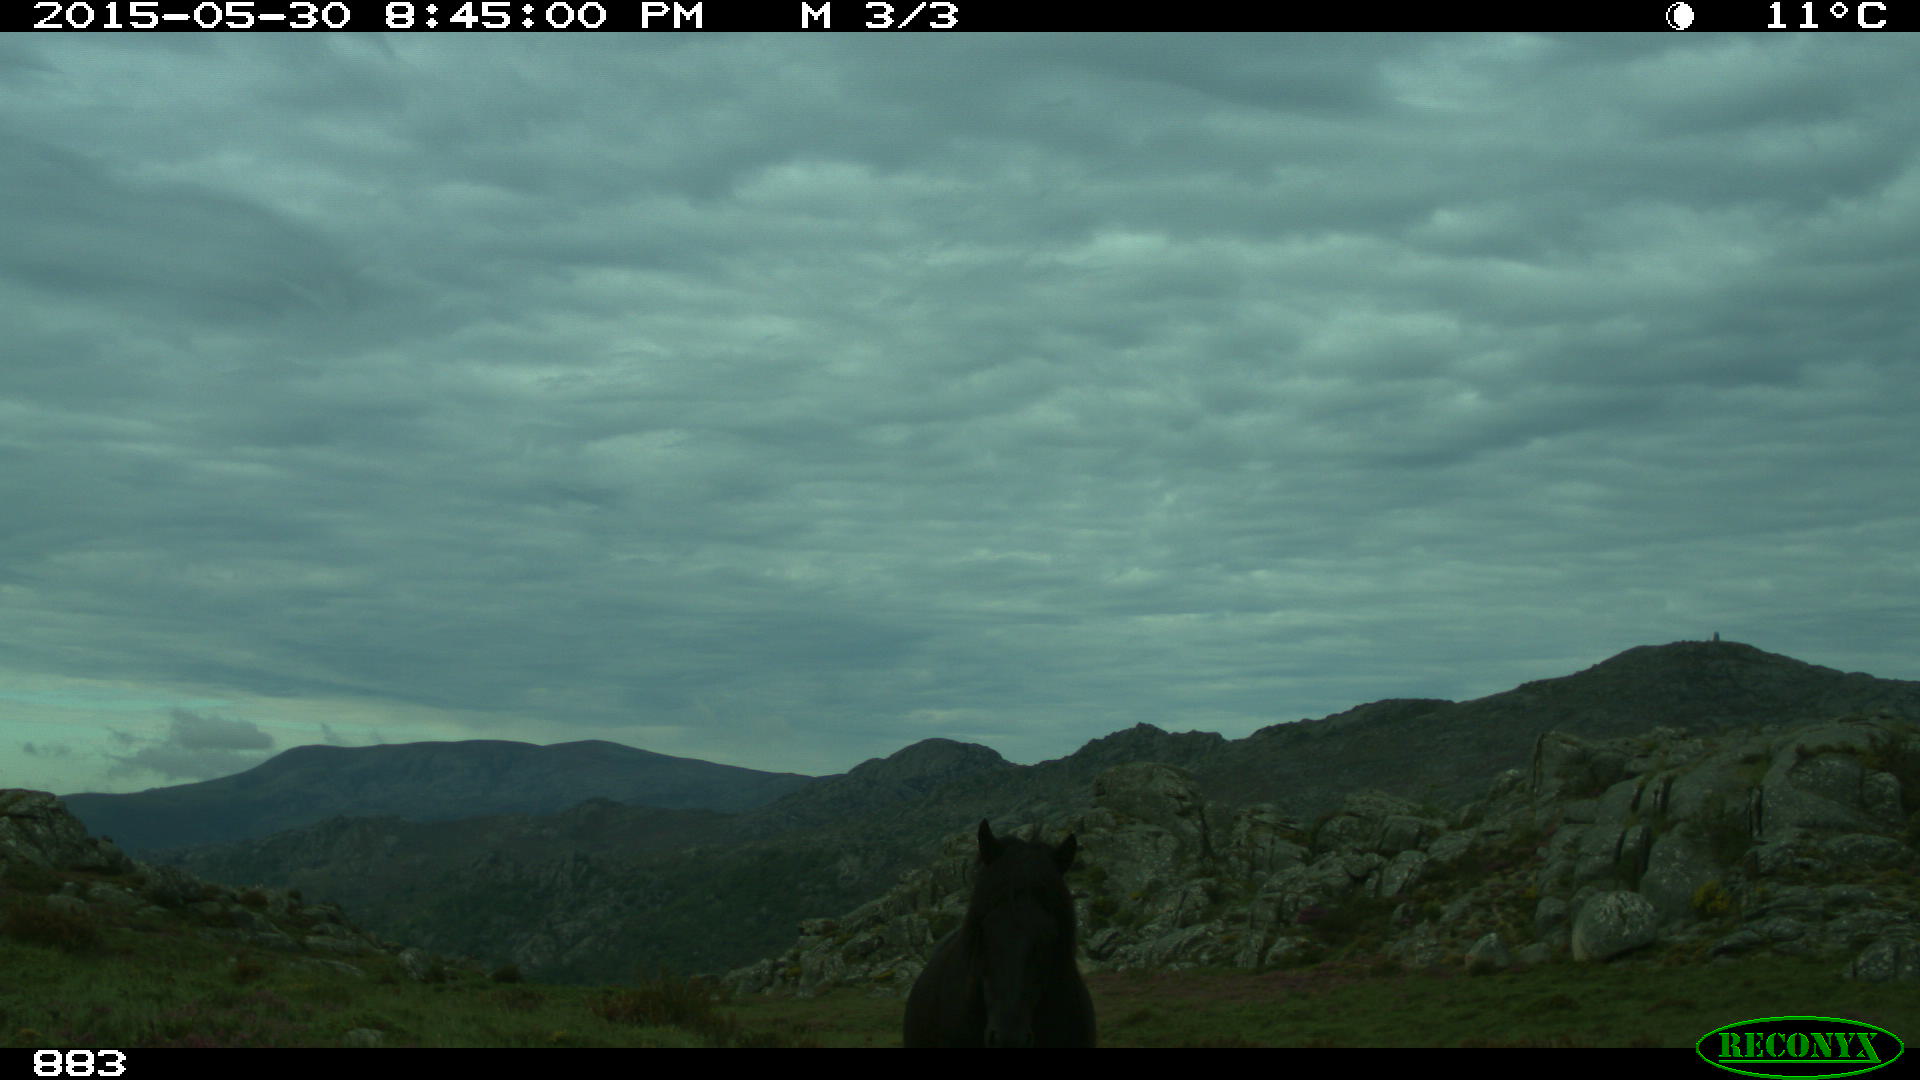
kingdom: Animalia
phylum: Chordata
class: Mammalia
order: Perissodactyla
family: Equidae
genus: Equus
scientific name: Equus caballus
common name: Horse
